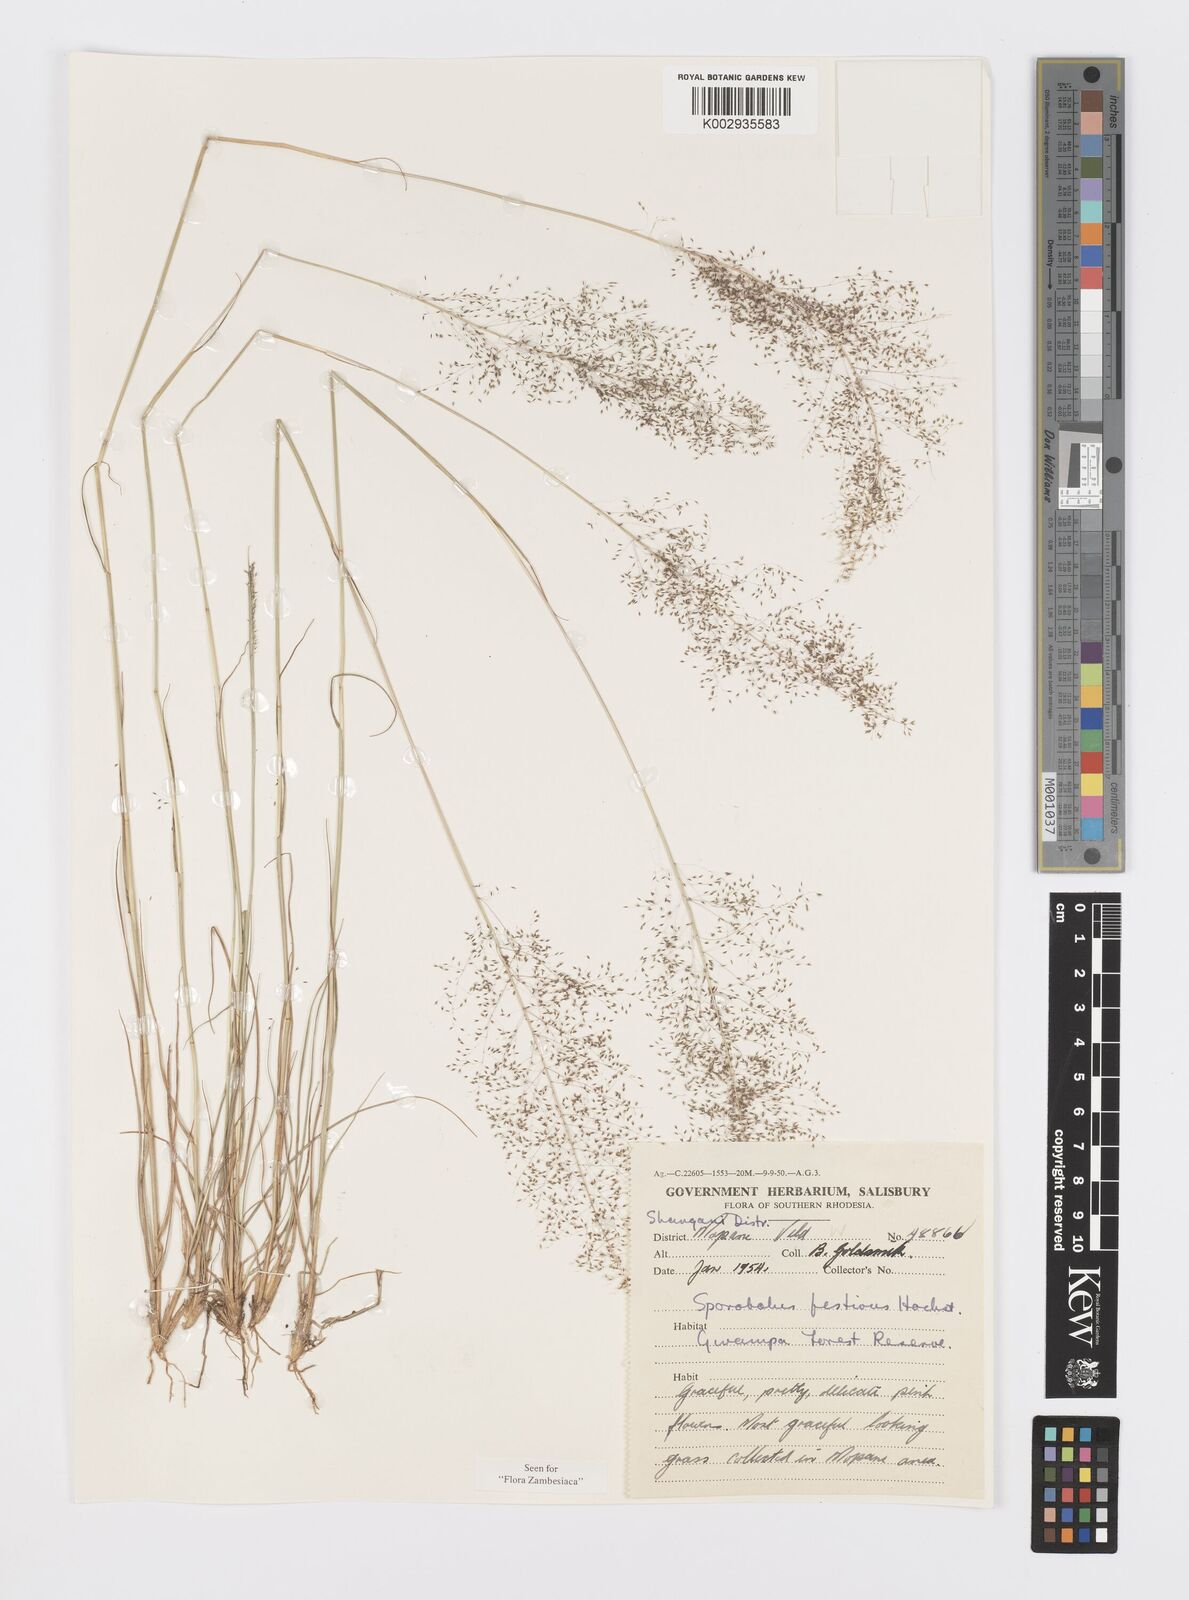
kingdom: Plantae
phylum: Tracheophyta
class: Liliopsida
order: Poales
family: Poaceae
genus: Sporobolus
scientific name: Sporobolus festivus
